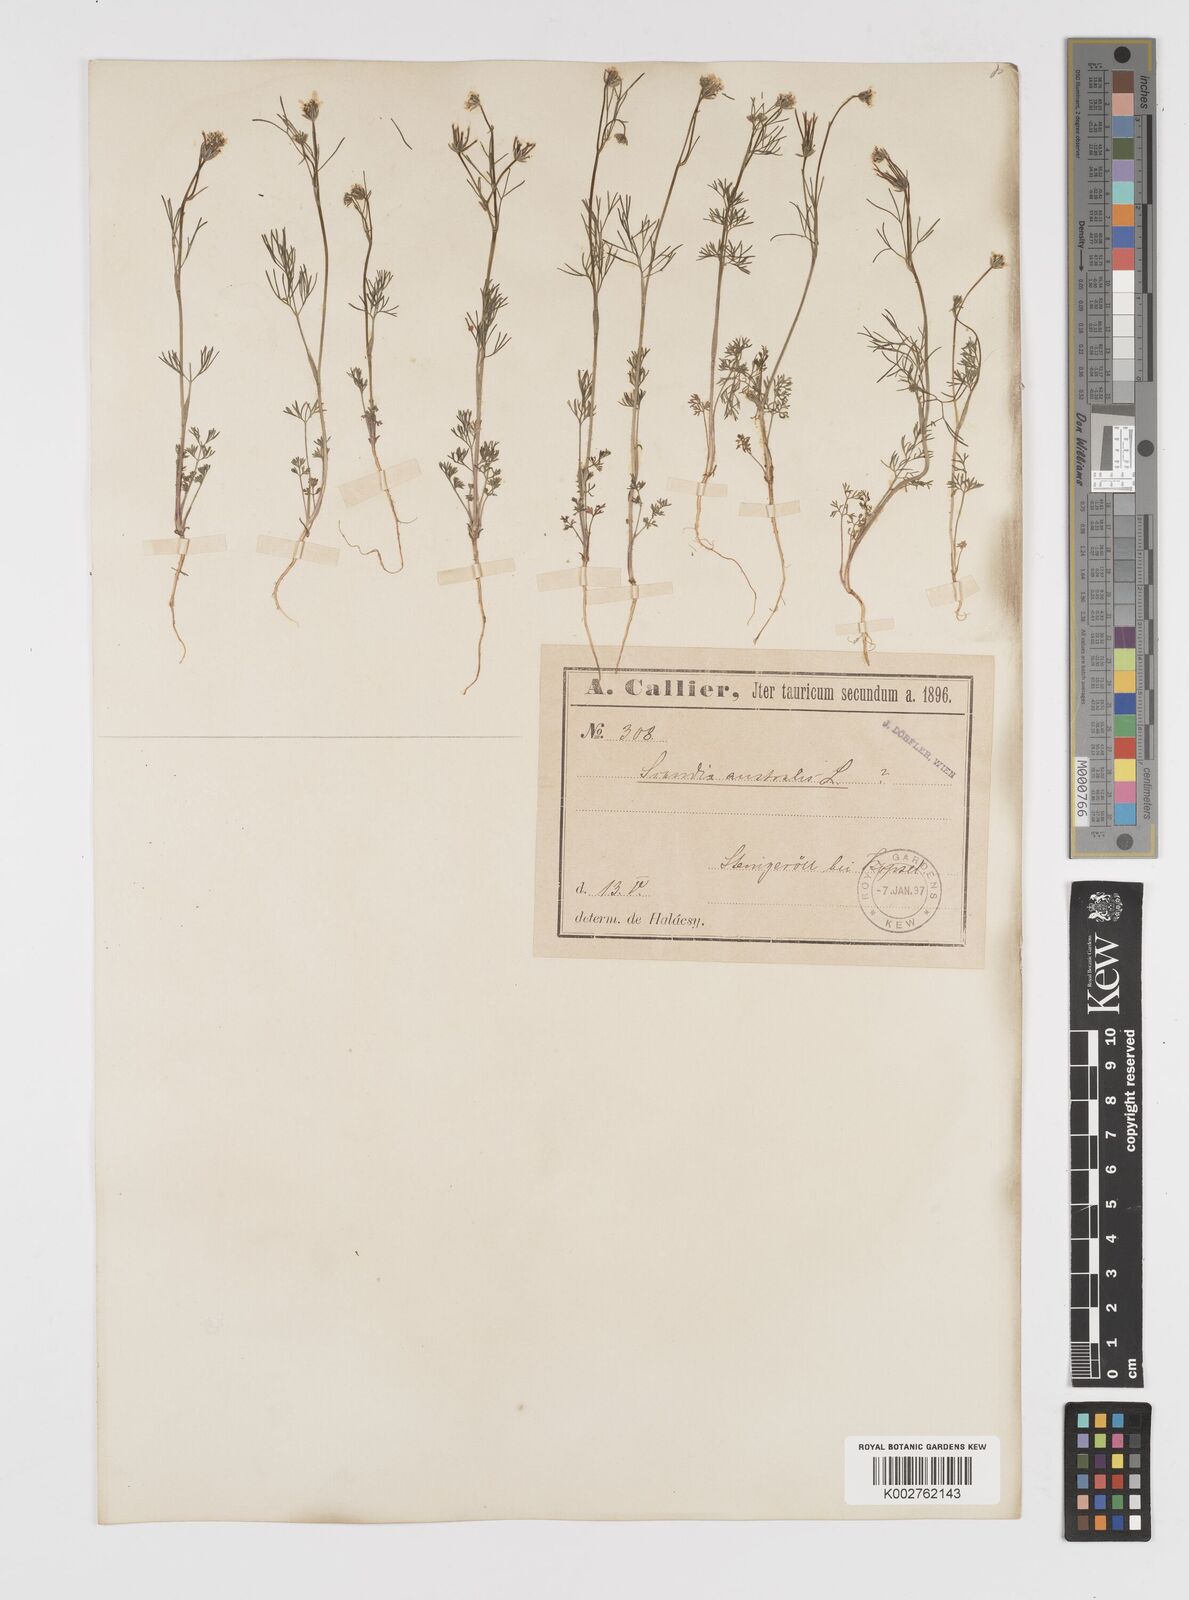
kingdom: Plantae
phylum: Tracheophyta
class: Magnoliopsida
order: Apiales
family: Apiaceae
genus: Scandix
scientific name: Scandix australis
